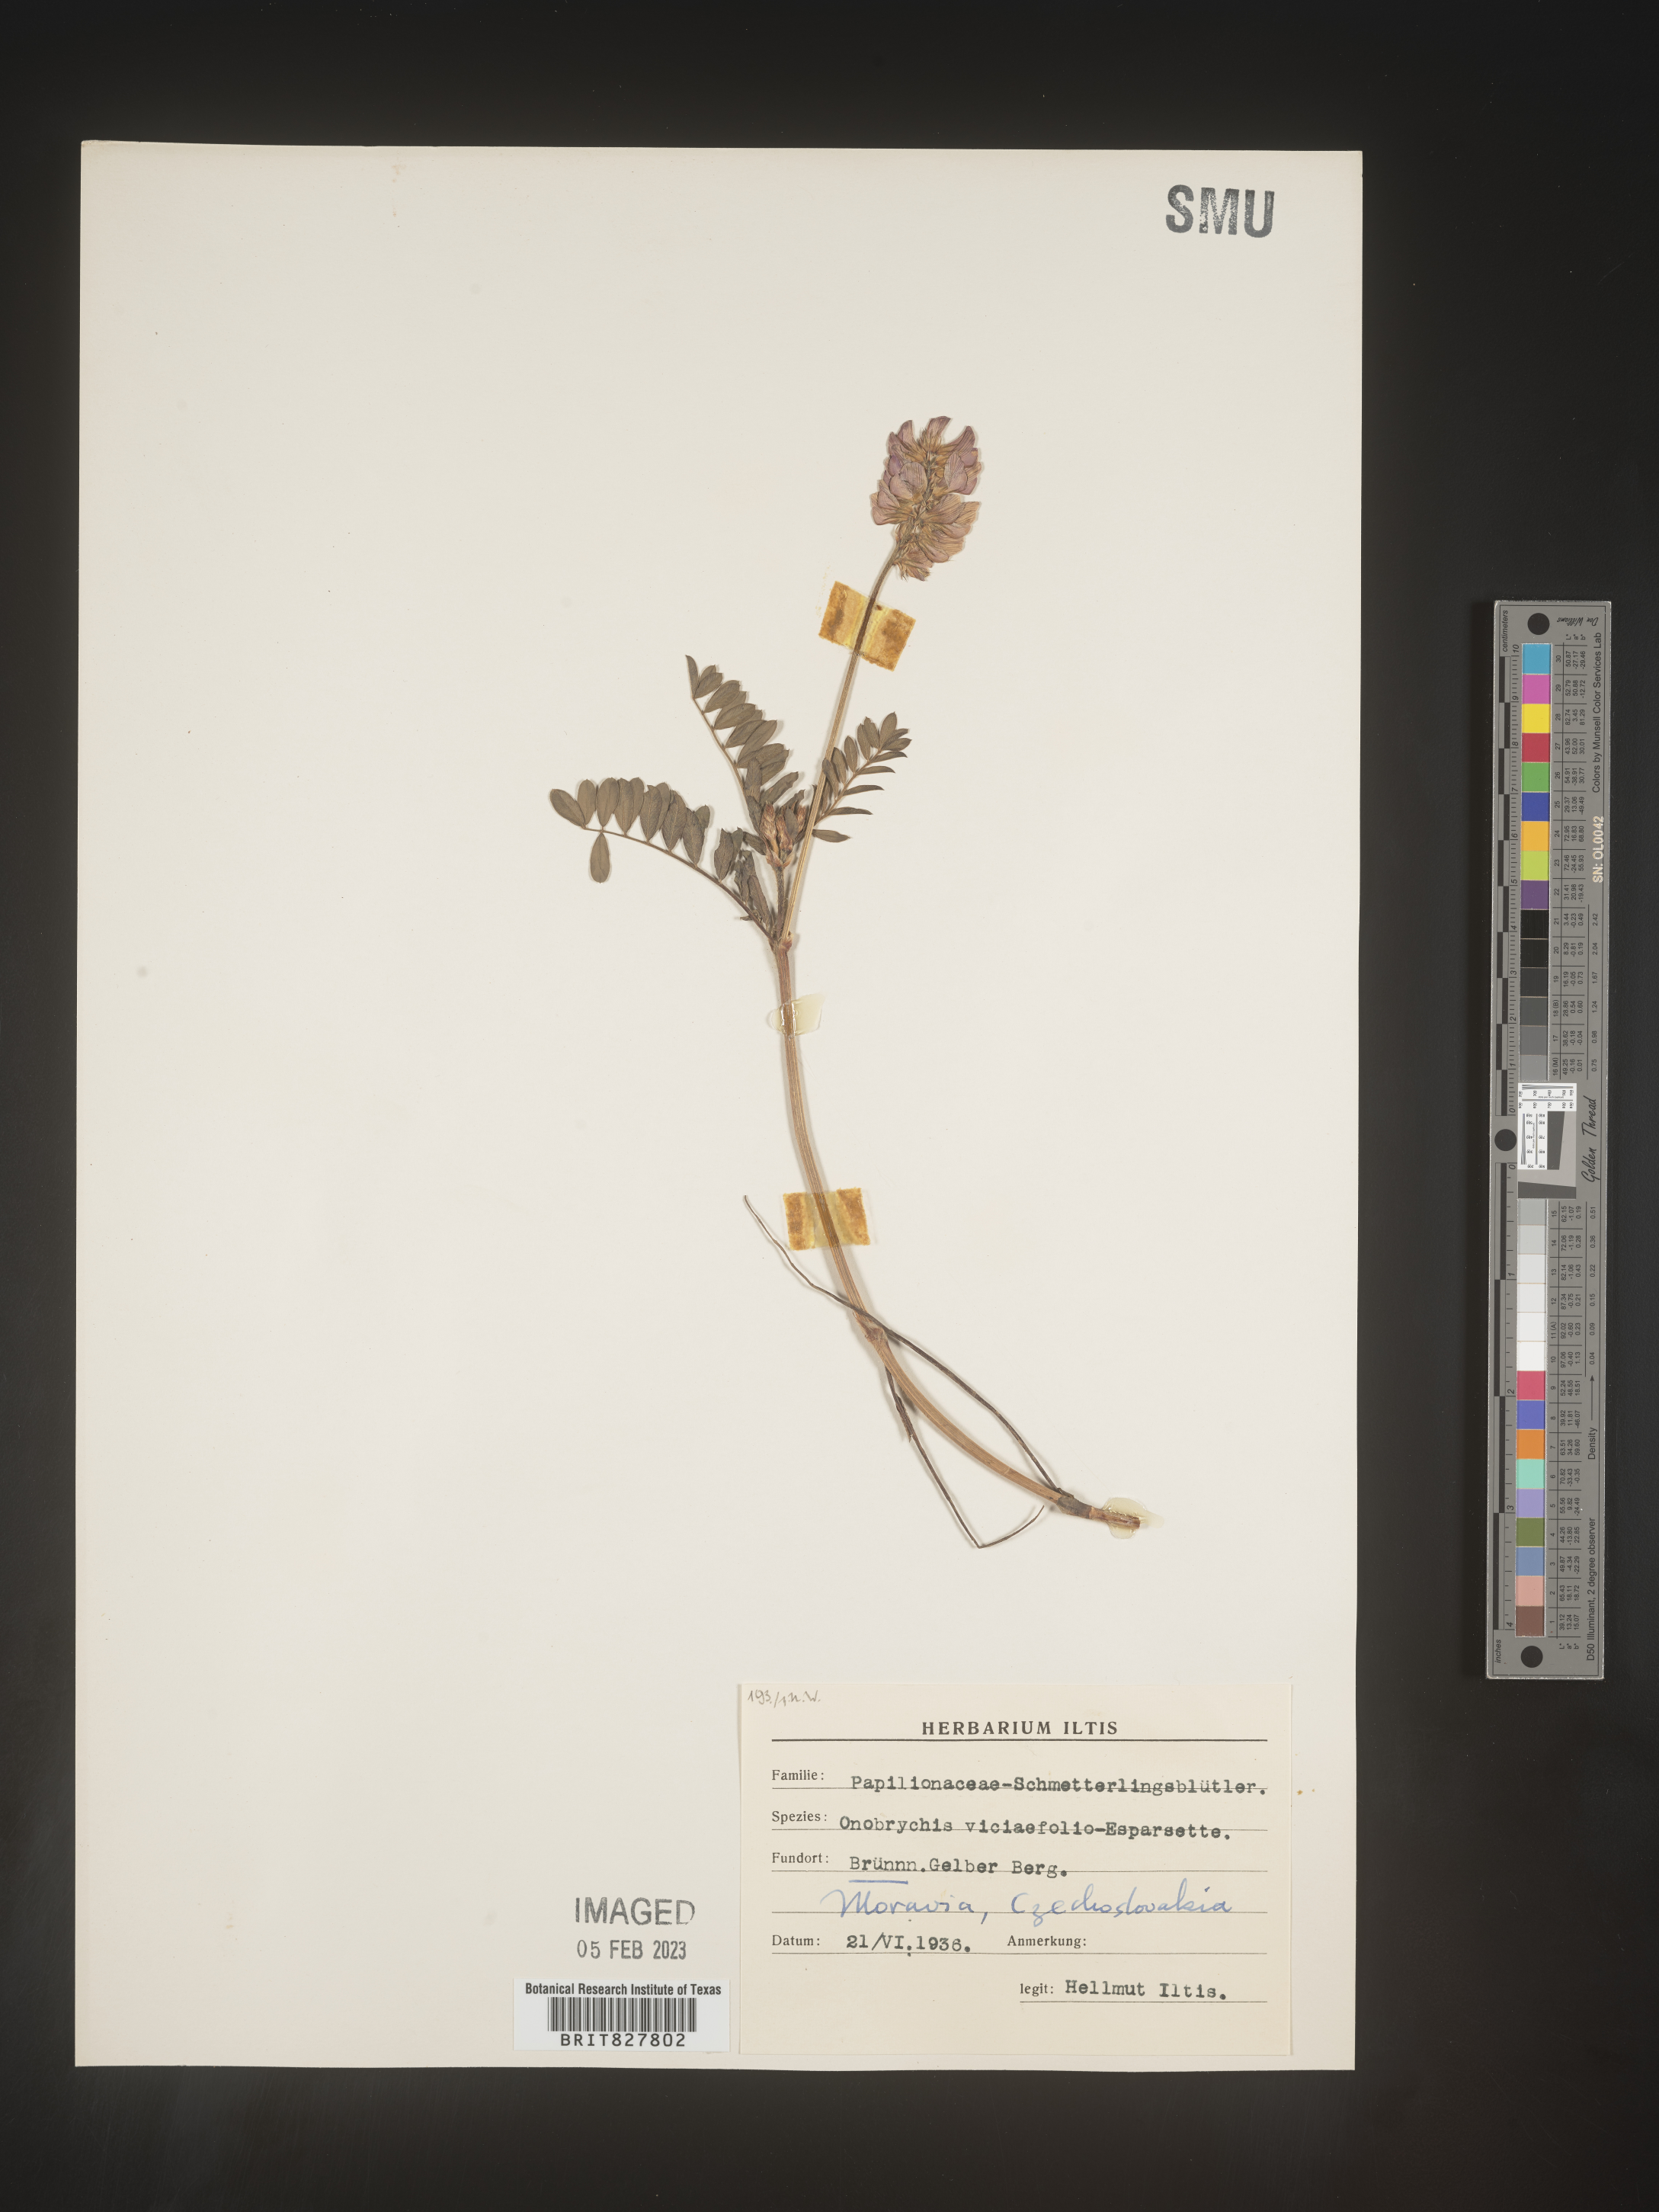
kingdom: Plantae
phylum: Tracheophyta
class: Magnoliopsida
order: Fabales
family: Fabaceae
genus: Onobrychis
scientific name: Onobrychis
